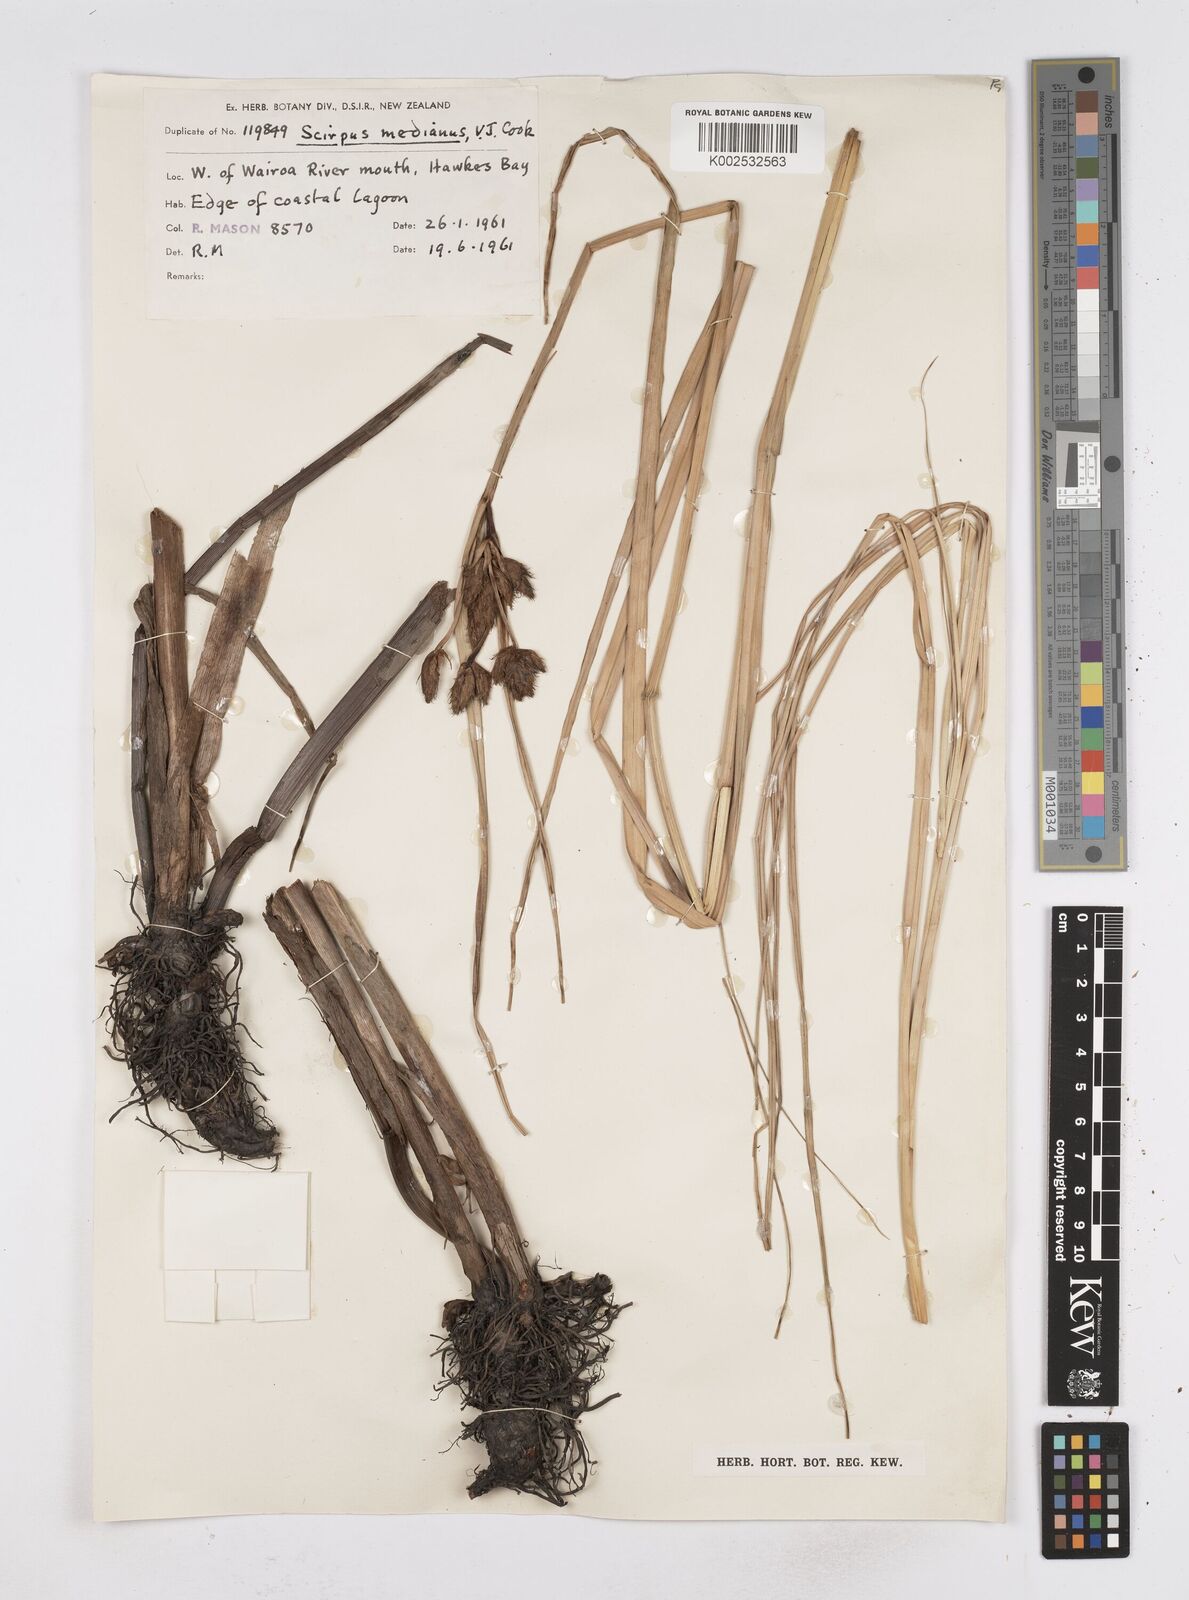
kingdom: Plantae
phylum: Tracheophyta
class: Liliopsida
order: Poales
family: Cyperaceae
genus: Bolboschoenus
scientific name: Bolboschoenus medianus
